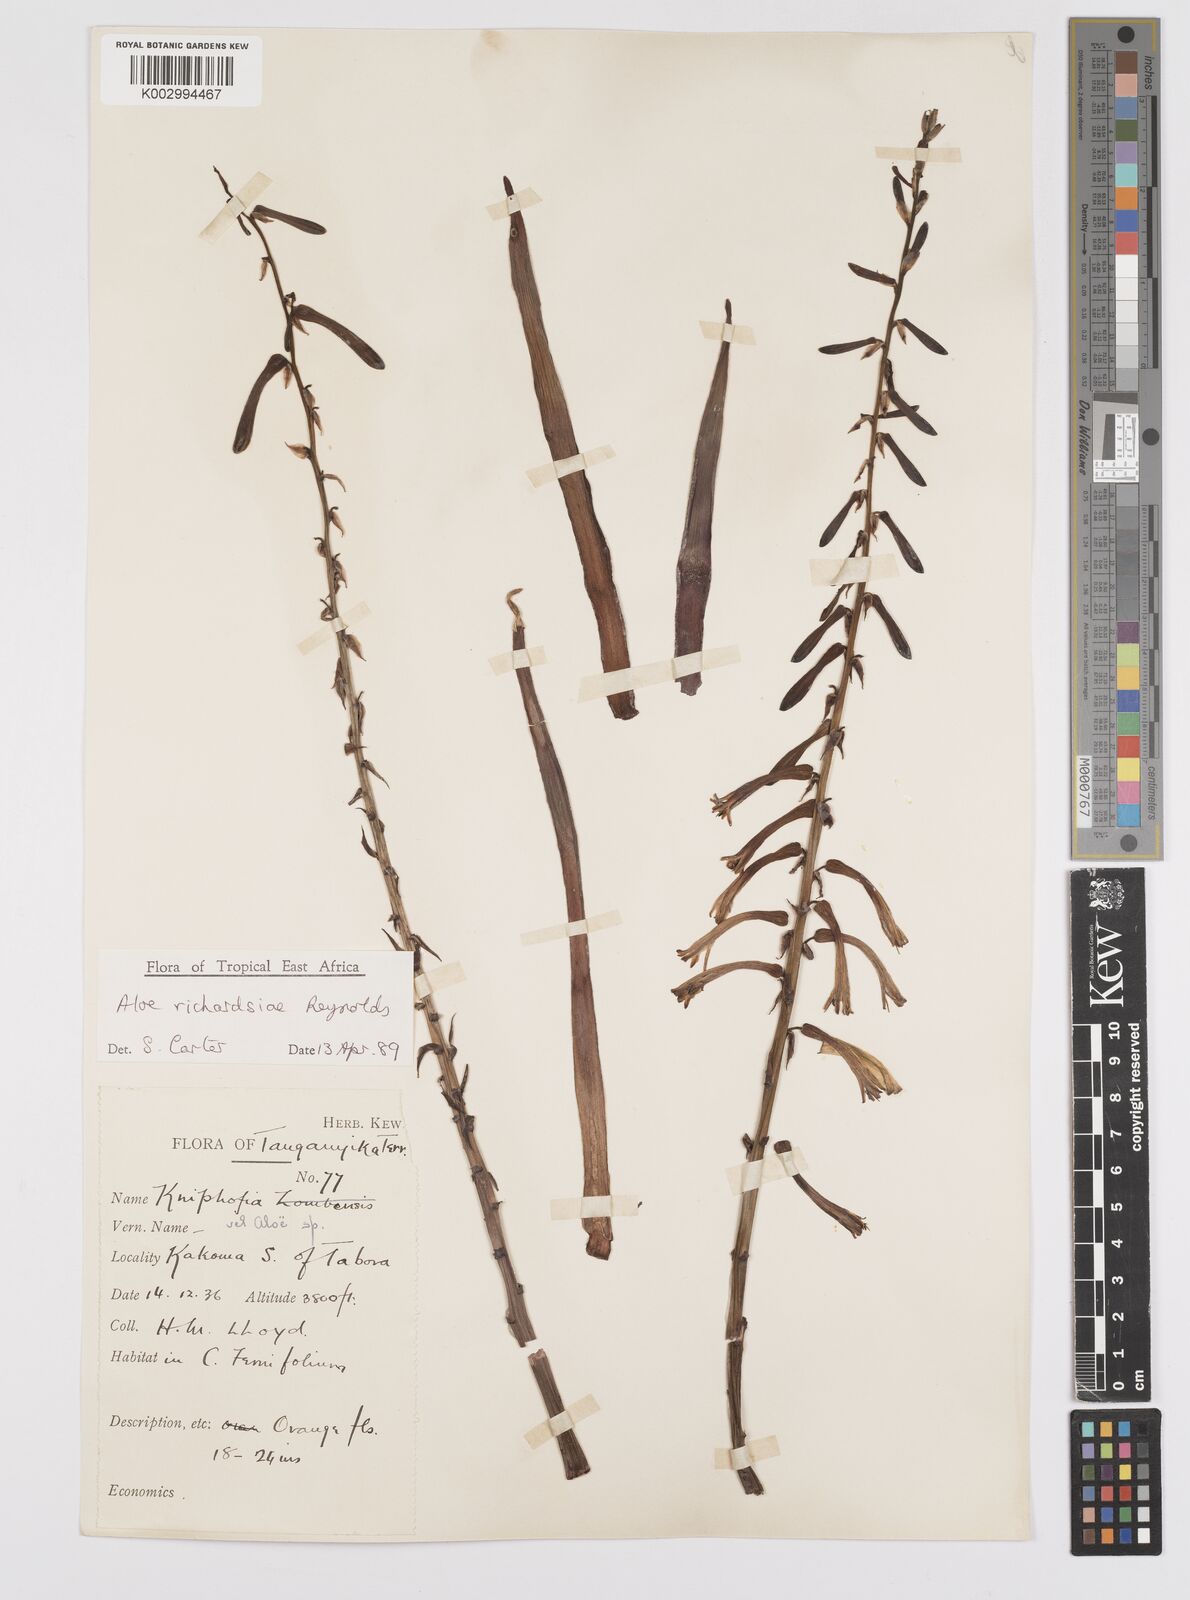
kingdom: Plantae
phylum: Tracheophyta
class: Liliopsida
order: Asparagales
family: Asphodelaceae
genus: Aloe
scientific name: Aloe richardsiae
